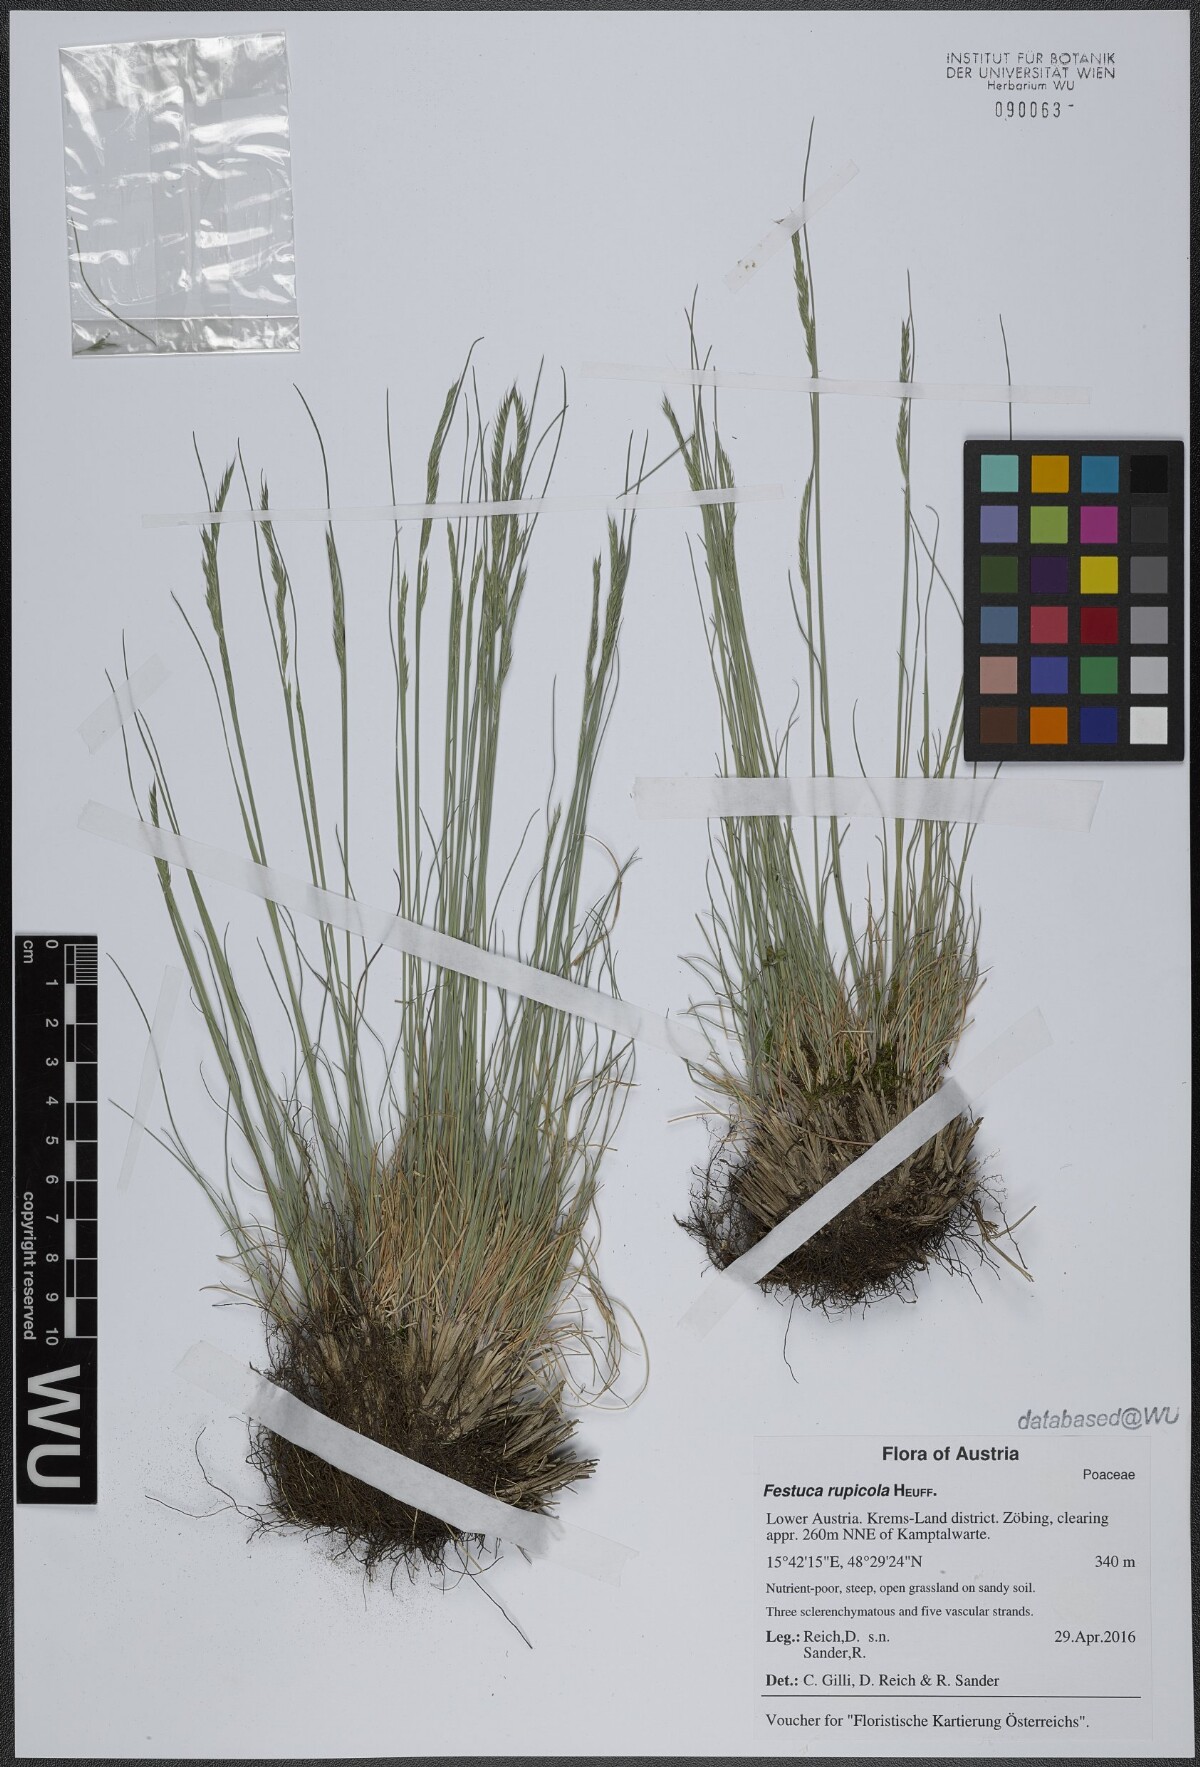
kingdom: Plantae
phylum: Tracheophyta
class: Liliopsida
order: Poales
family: Poaceae
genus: Festuca
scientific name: Festuca rupicola
